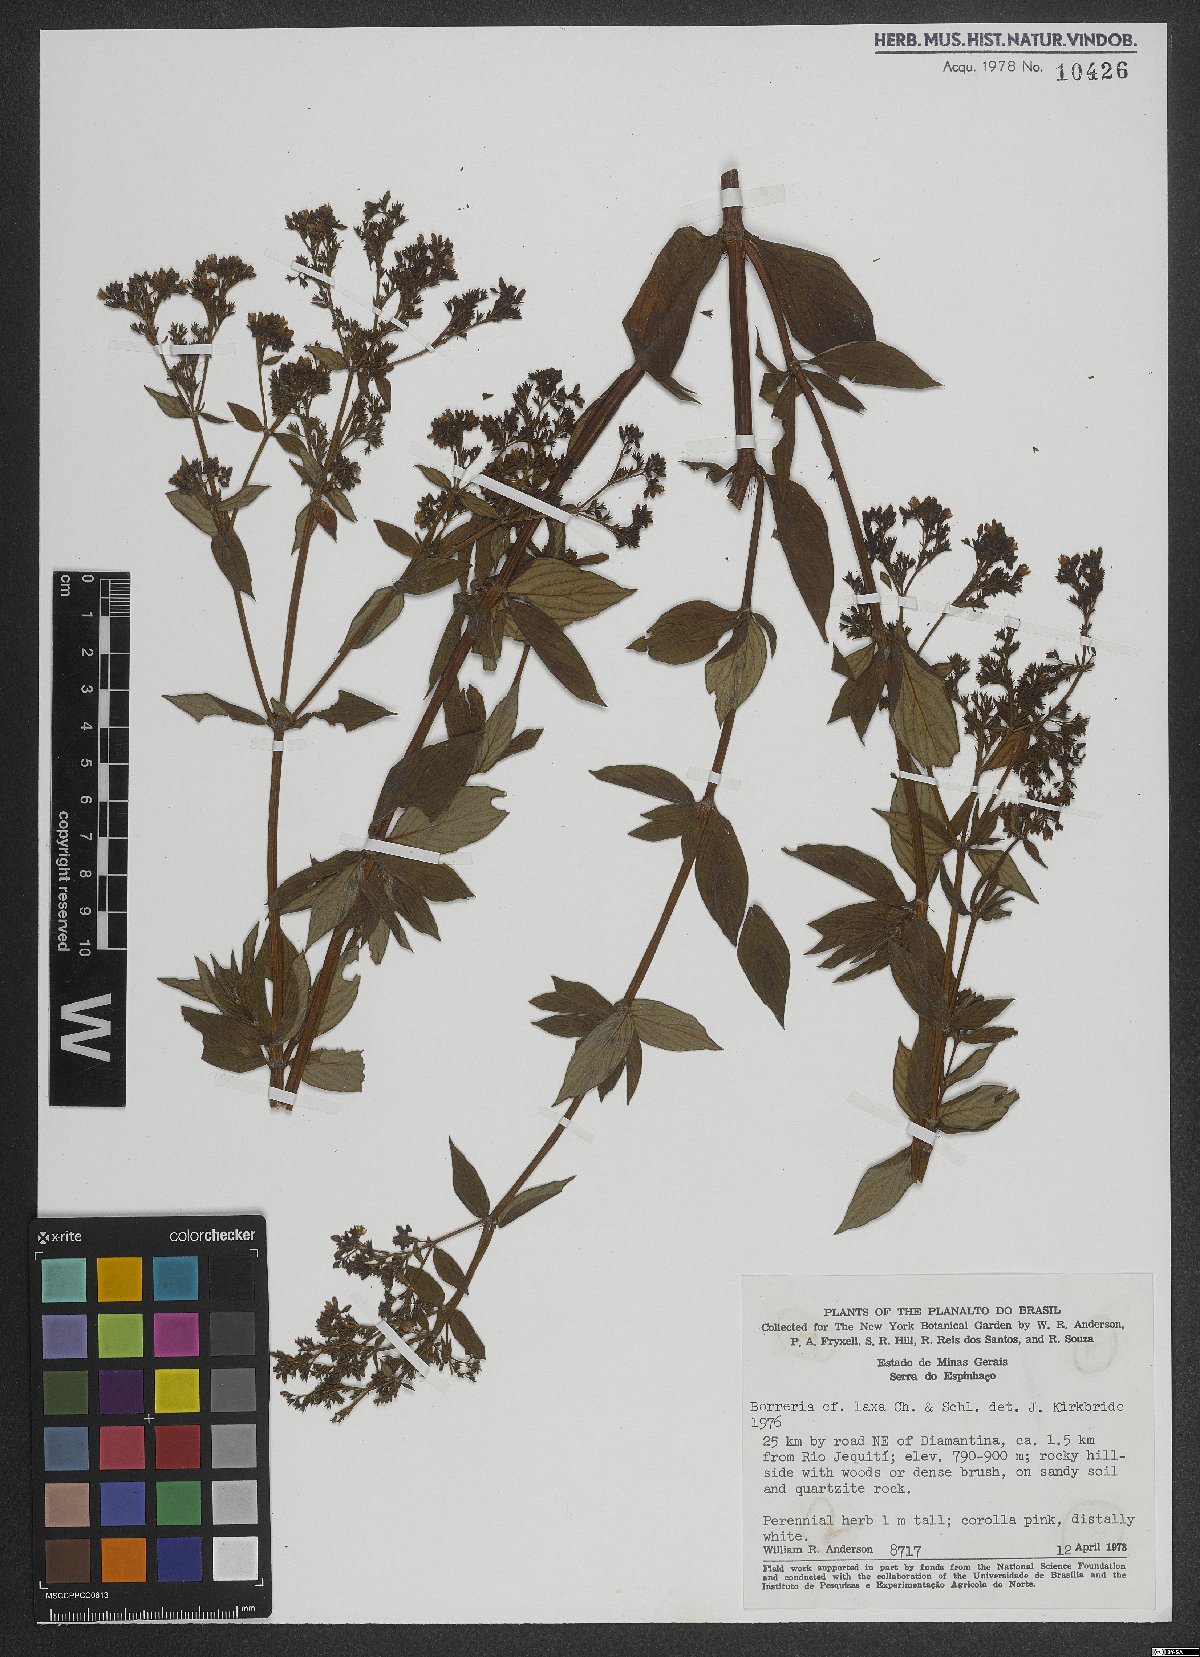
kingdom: Plantae
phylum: Tracheophyta
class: Magnoliopsida
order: Gentianales
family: Rubiaceae
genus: Galianthe
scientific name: Galianthe laxa
